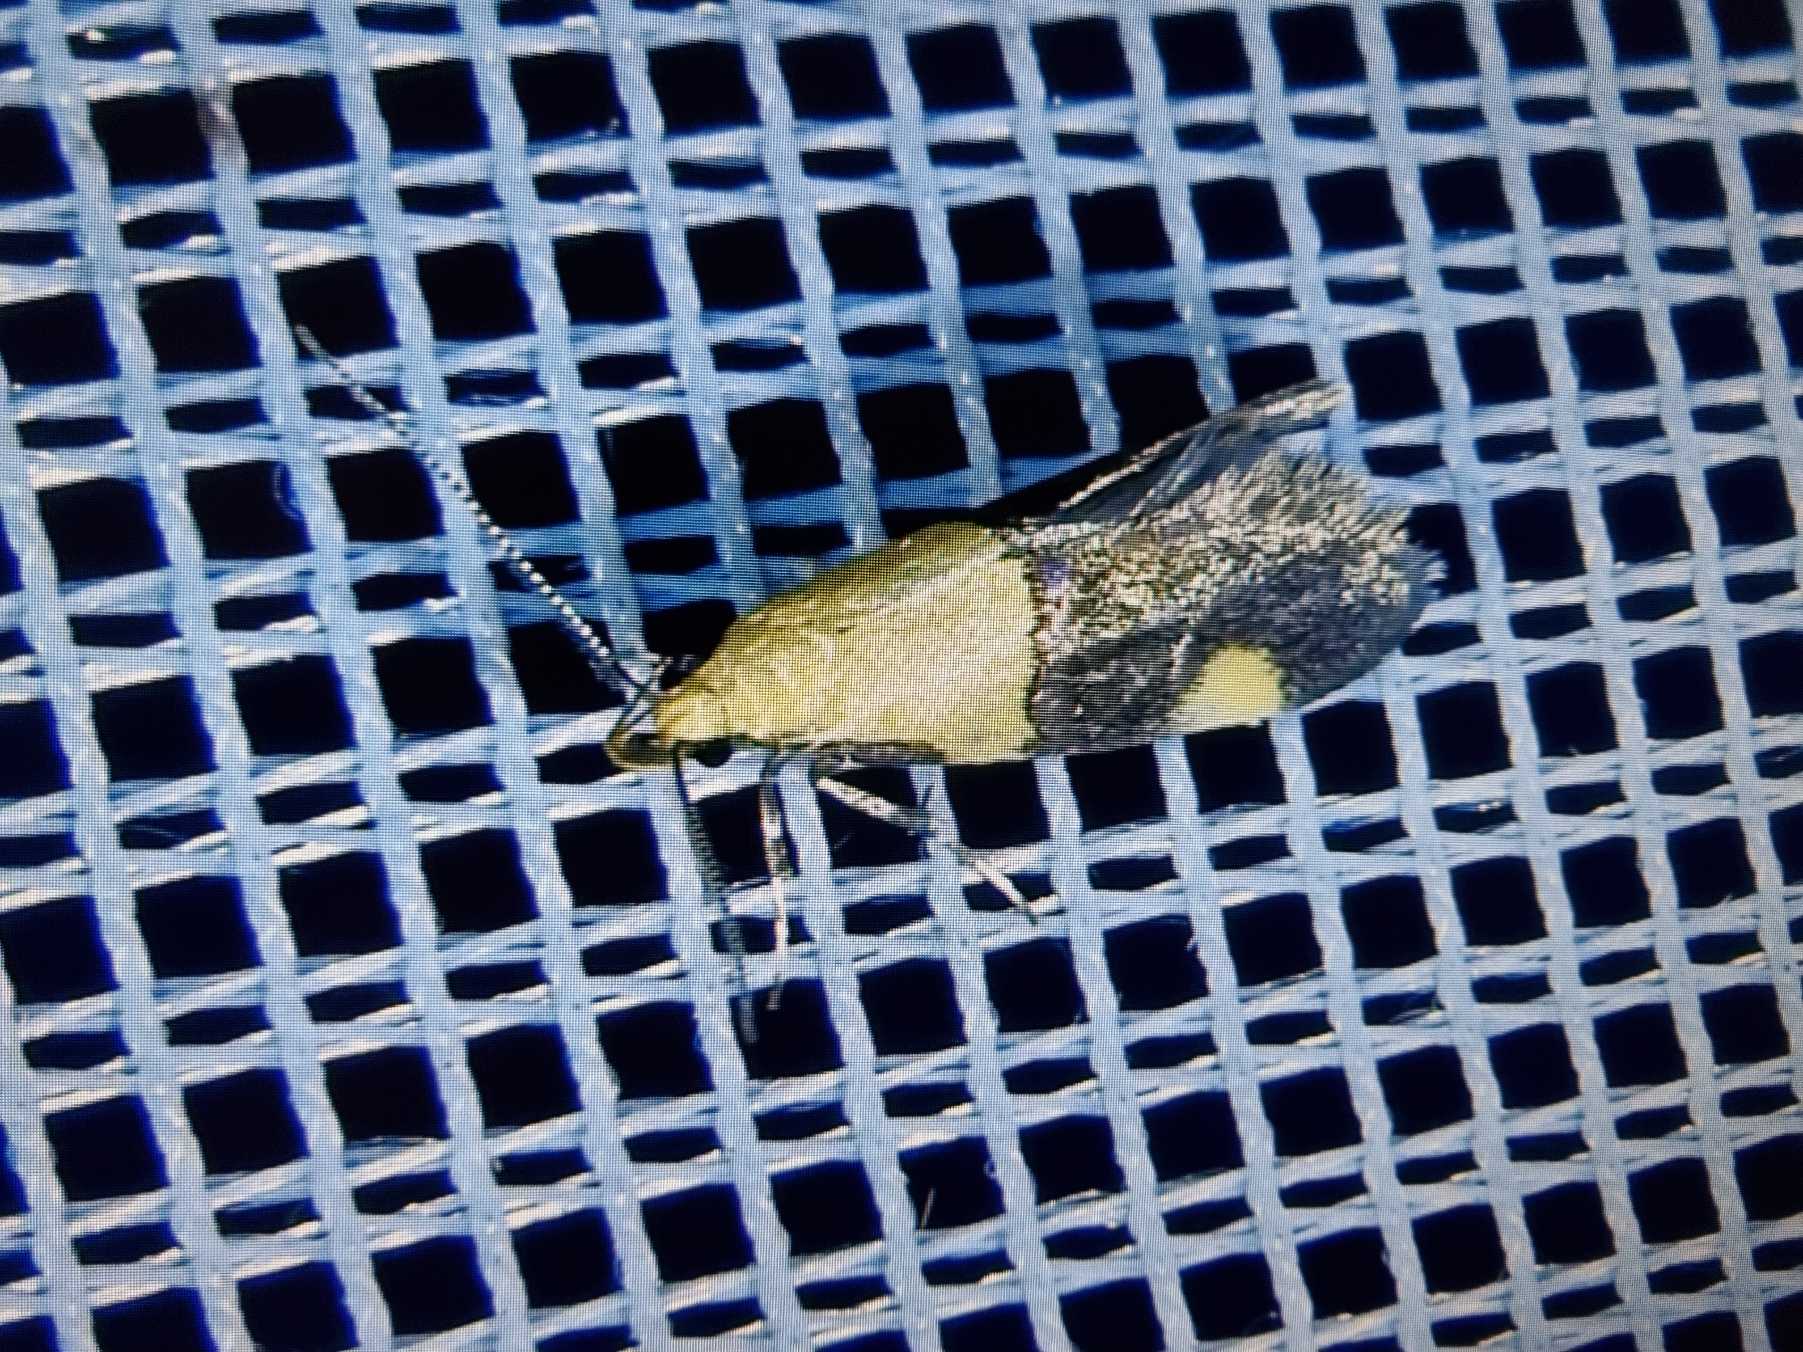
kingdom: Animalia
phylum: Arthropoda
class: Insecta
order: Lepidoptera
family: Oecophoridae
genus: Oecophora
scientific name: Oecophora bractella
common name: Tofarvet prydvinge
